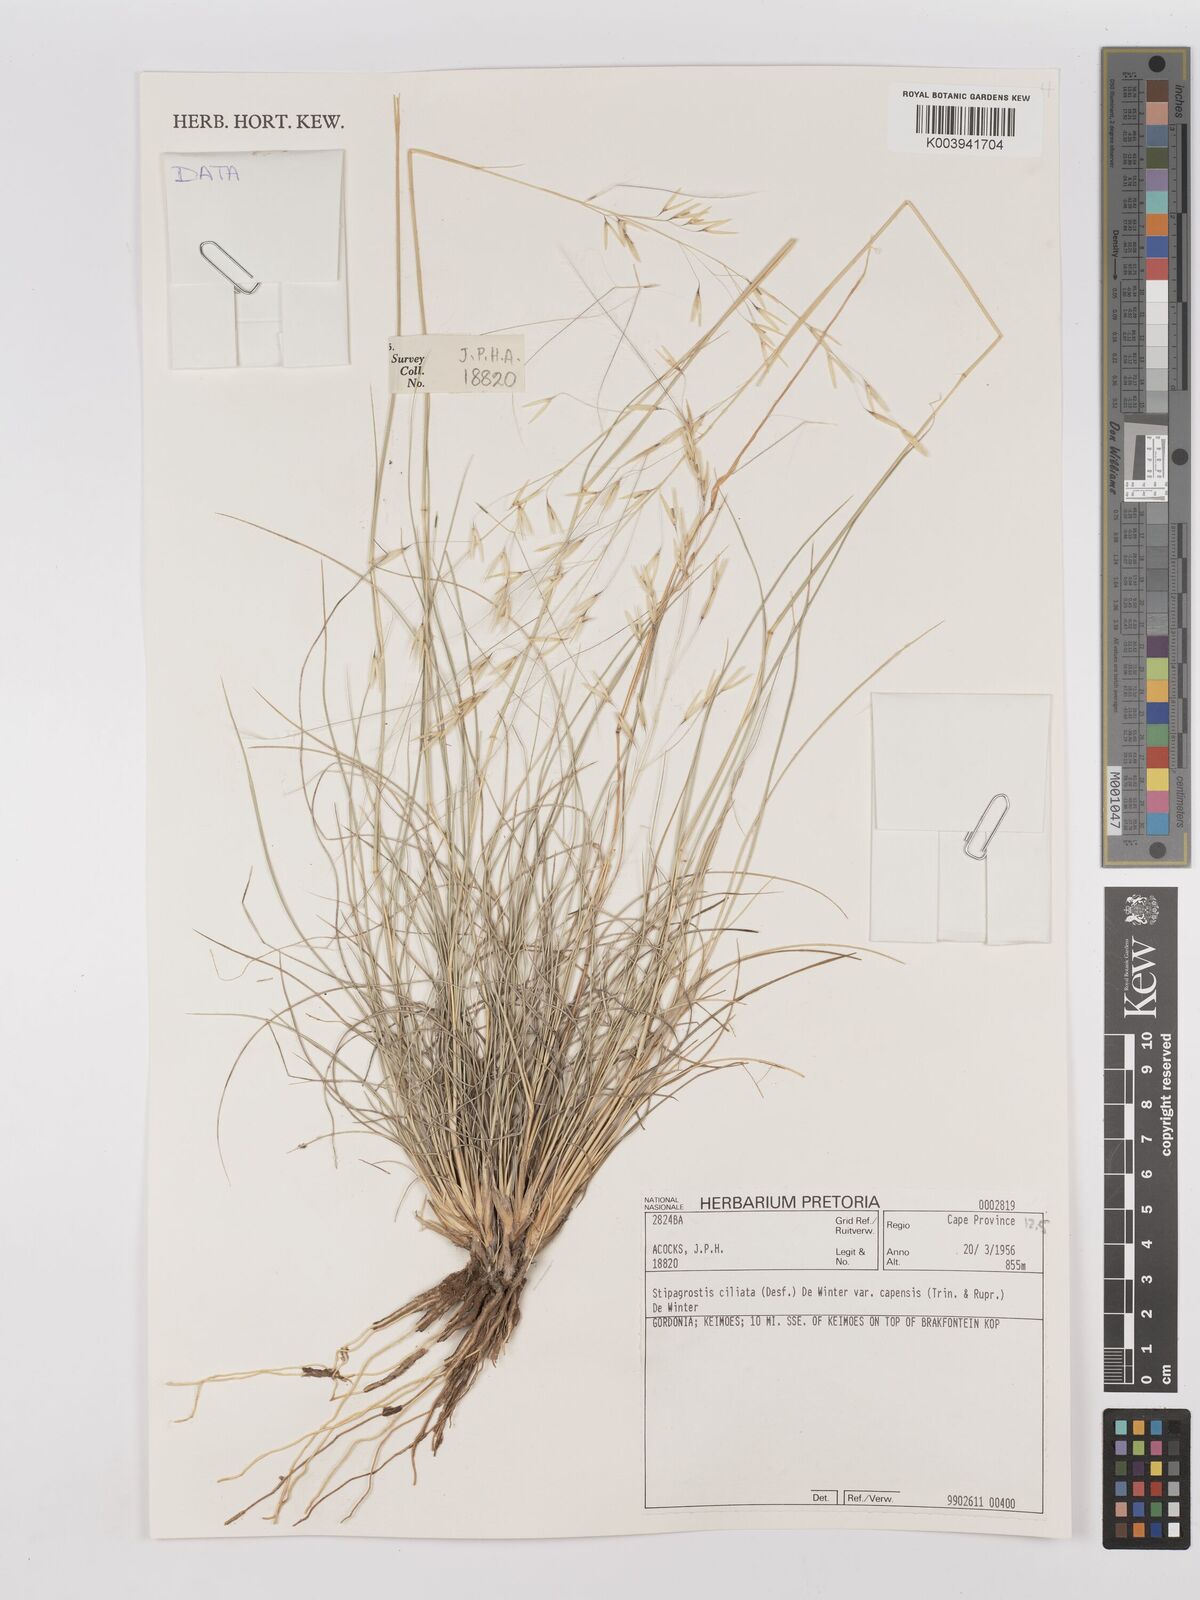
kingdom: Plantae
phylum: Tracheophyta
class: Liliopsida
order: Poales
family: Poaceae
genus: Stipagrostis
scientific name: Stipagrostis ciliata
